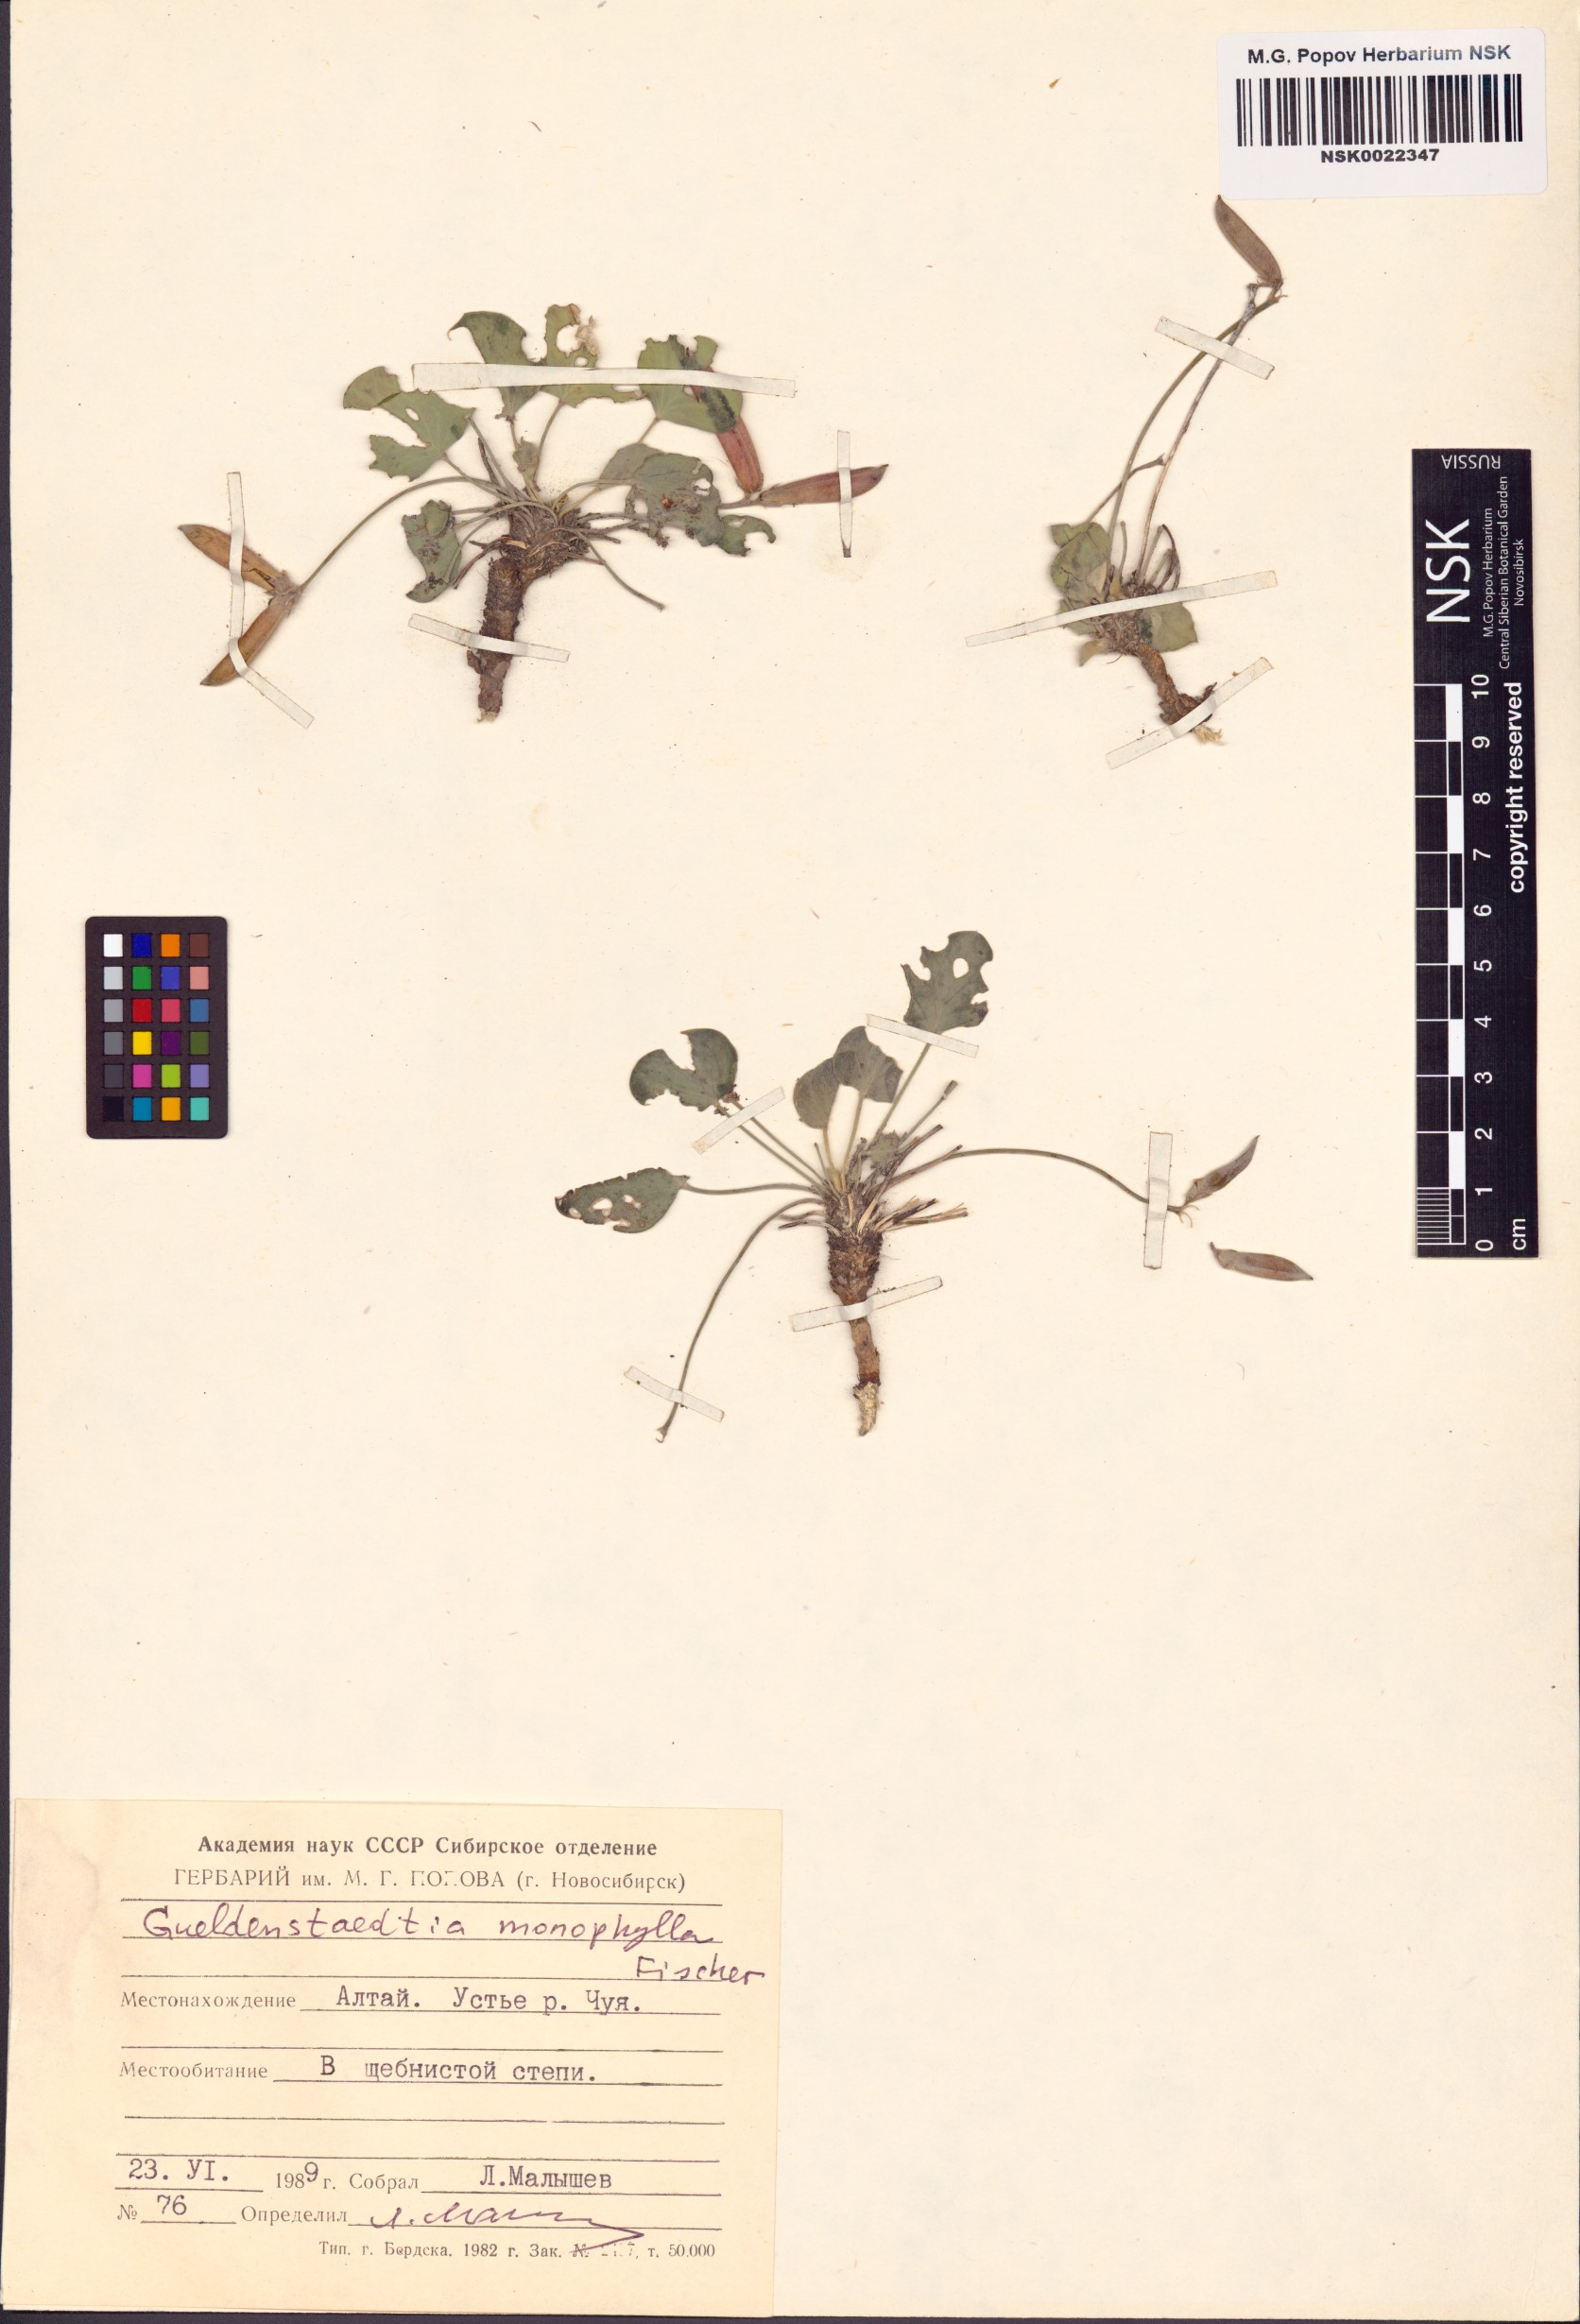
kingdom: Plantae
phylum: Tracheophyta
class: Magnoliopsida
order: Fabales
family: Fabaceae
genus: Gueldenstaedtia
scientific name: Gueldenstaedtia monophylla
